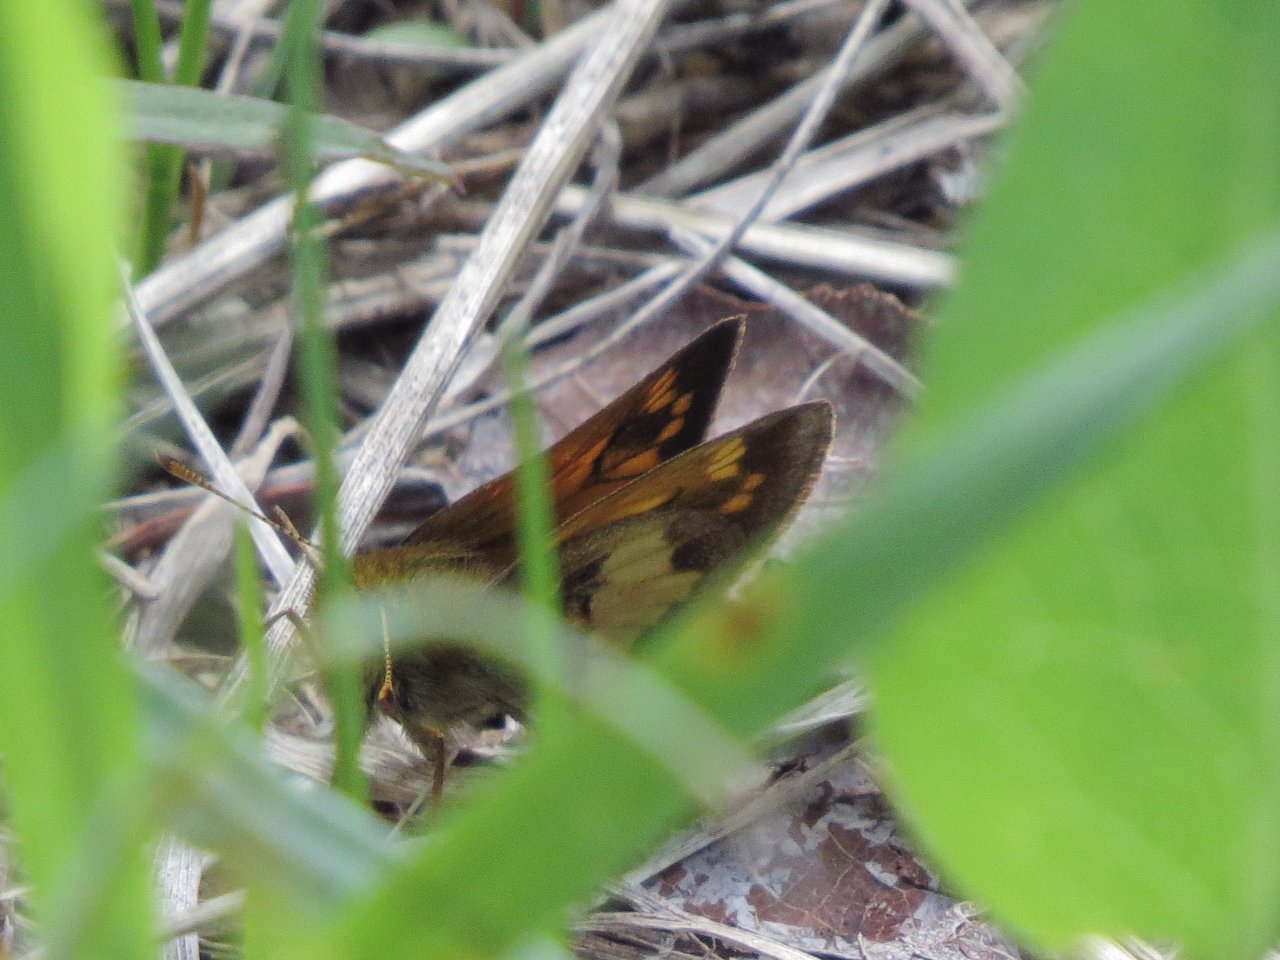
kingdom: Animalia
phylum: Arthropoda
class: Insecta
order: Lepidoptera
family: Hesperiidae
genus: Polites
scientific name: Polites coras
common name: Peck's Skipper
